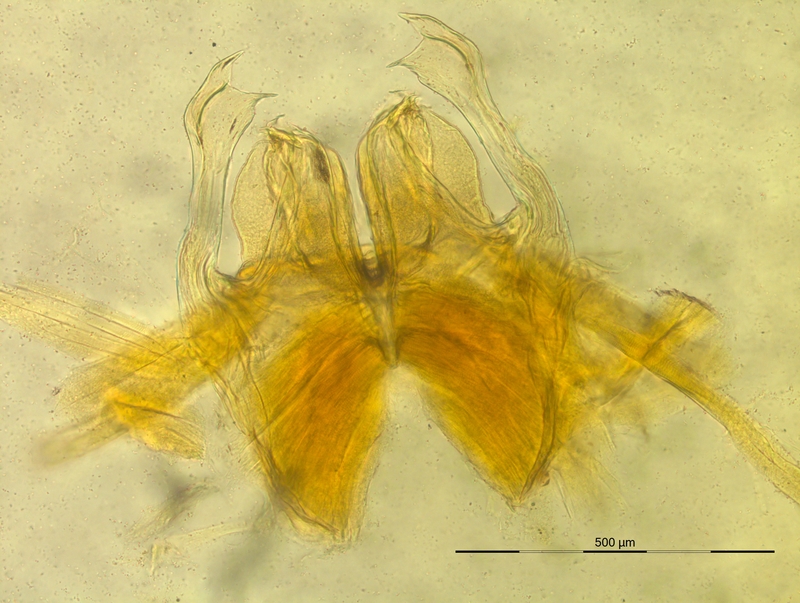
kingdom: Animalia
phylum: Arthropoda
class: Diplopoda
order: Chordeumatida
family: Craspedosomatidae
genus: Oroposoma
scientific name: Oroposoma varallense
